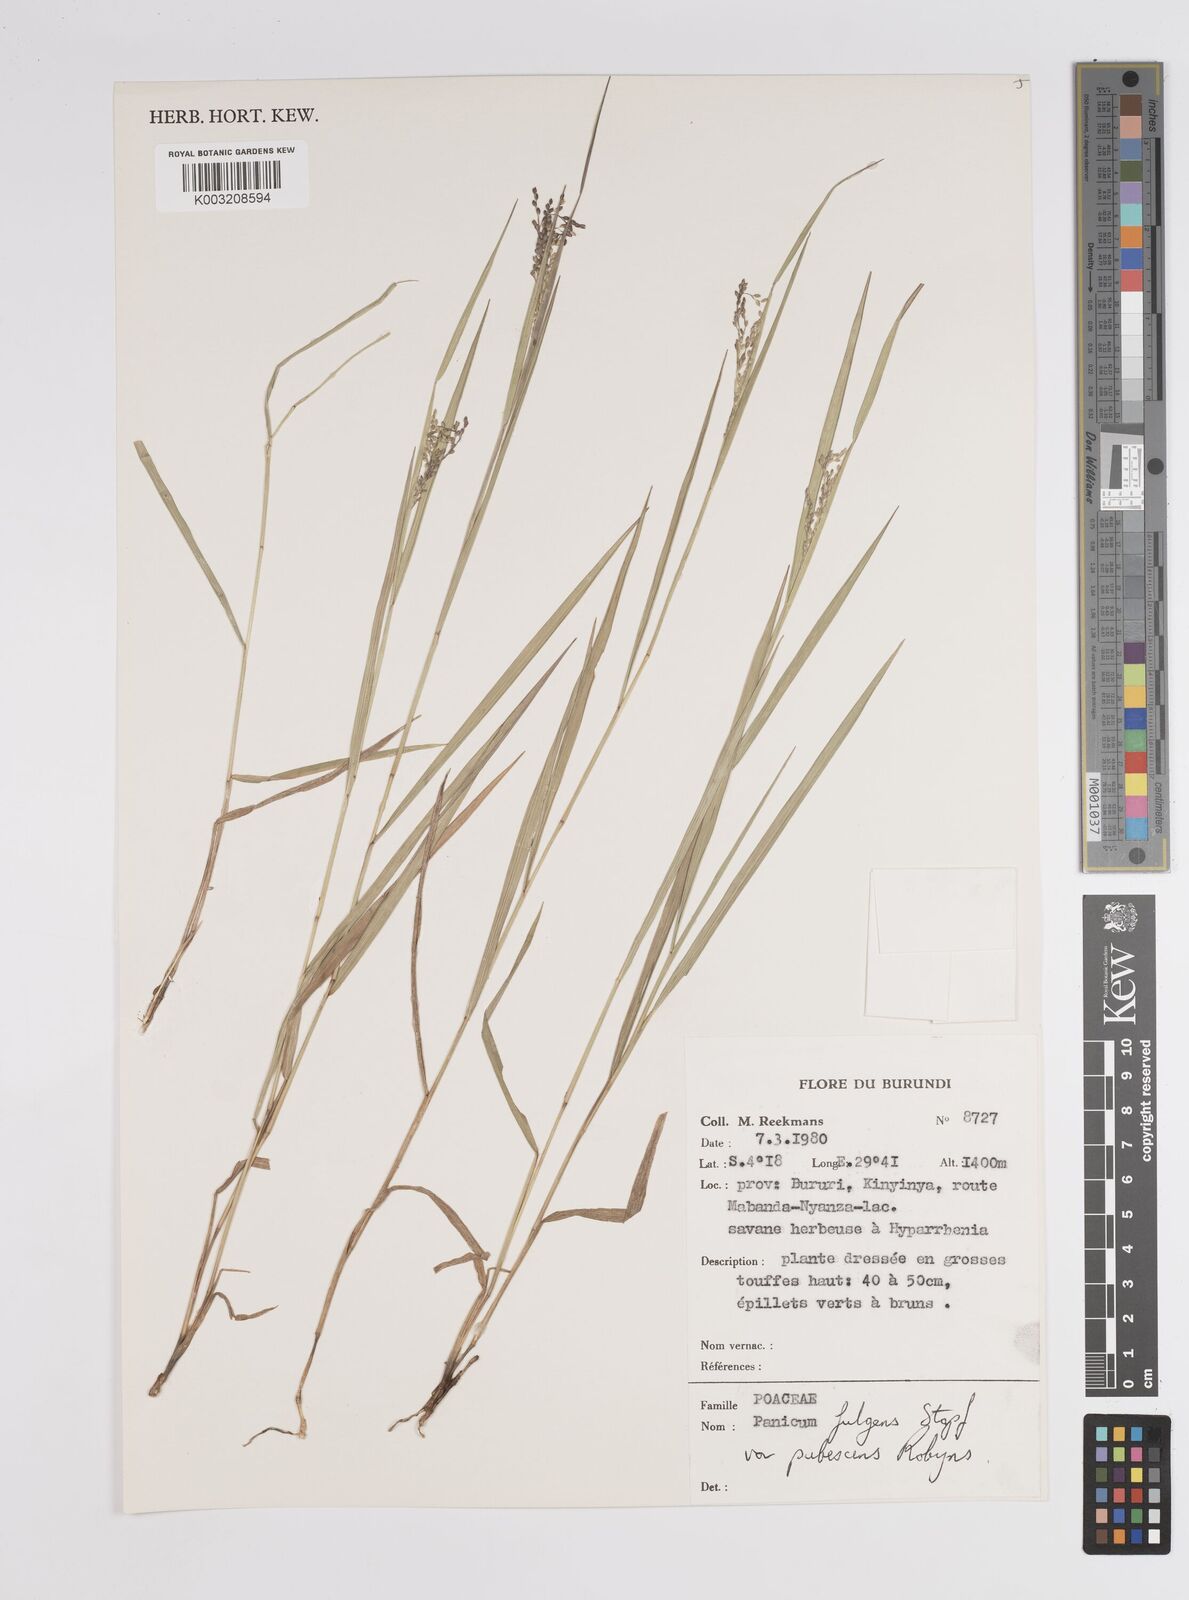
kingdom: Plantae
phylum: Tracheophyta
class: Liliopsida
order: Poales
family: Poaceae
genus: Trichanthecium
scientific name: Trichanthecium nervatum
